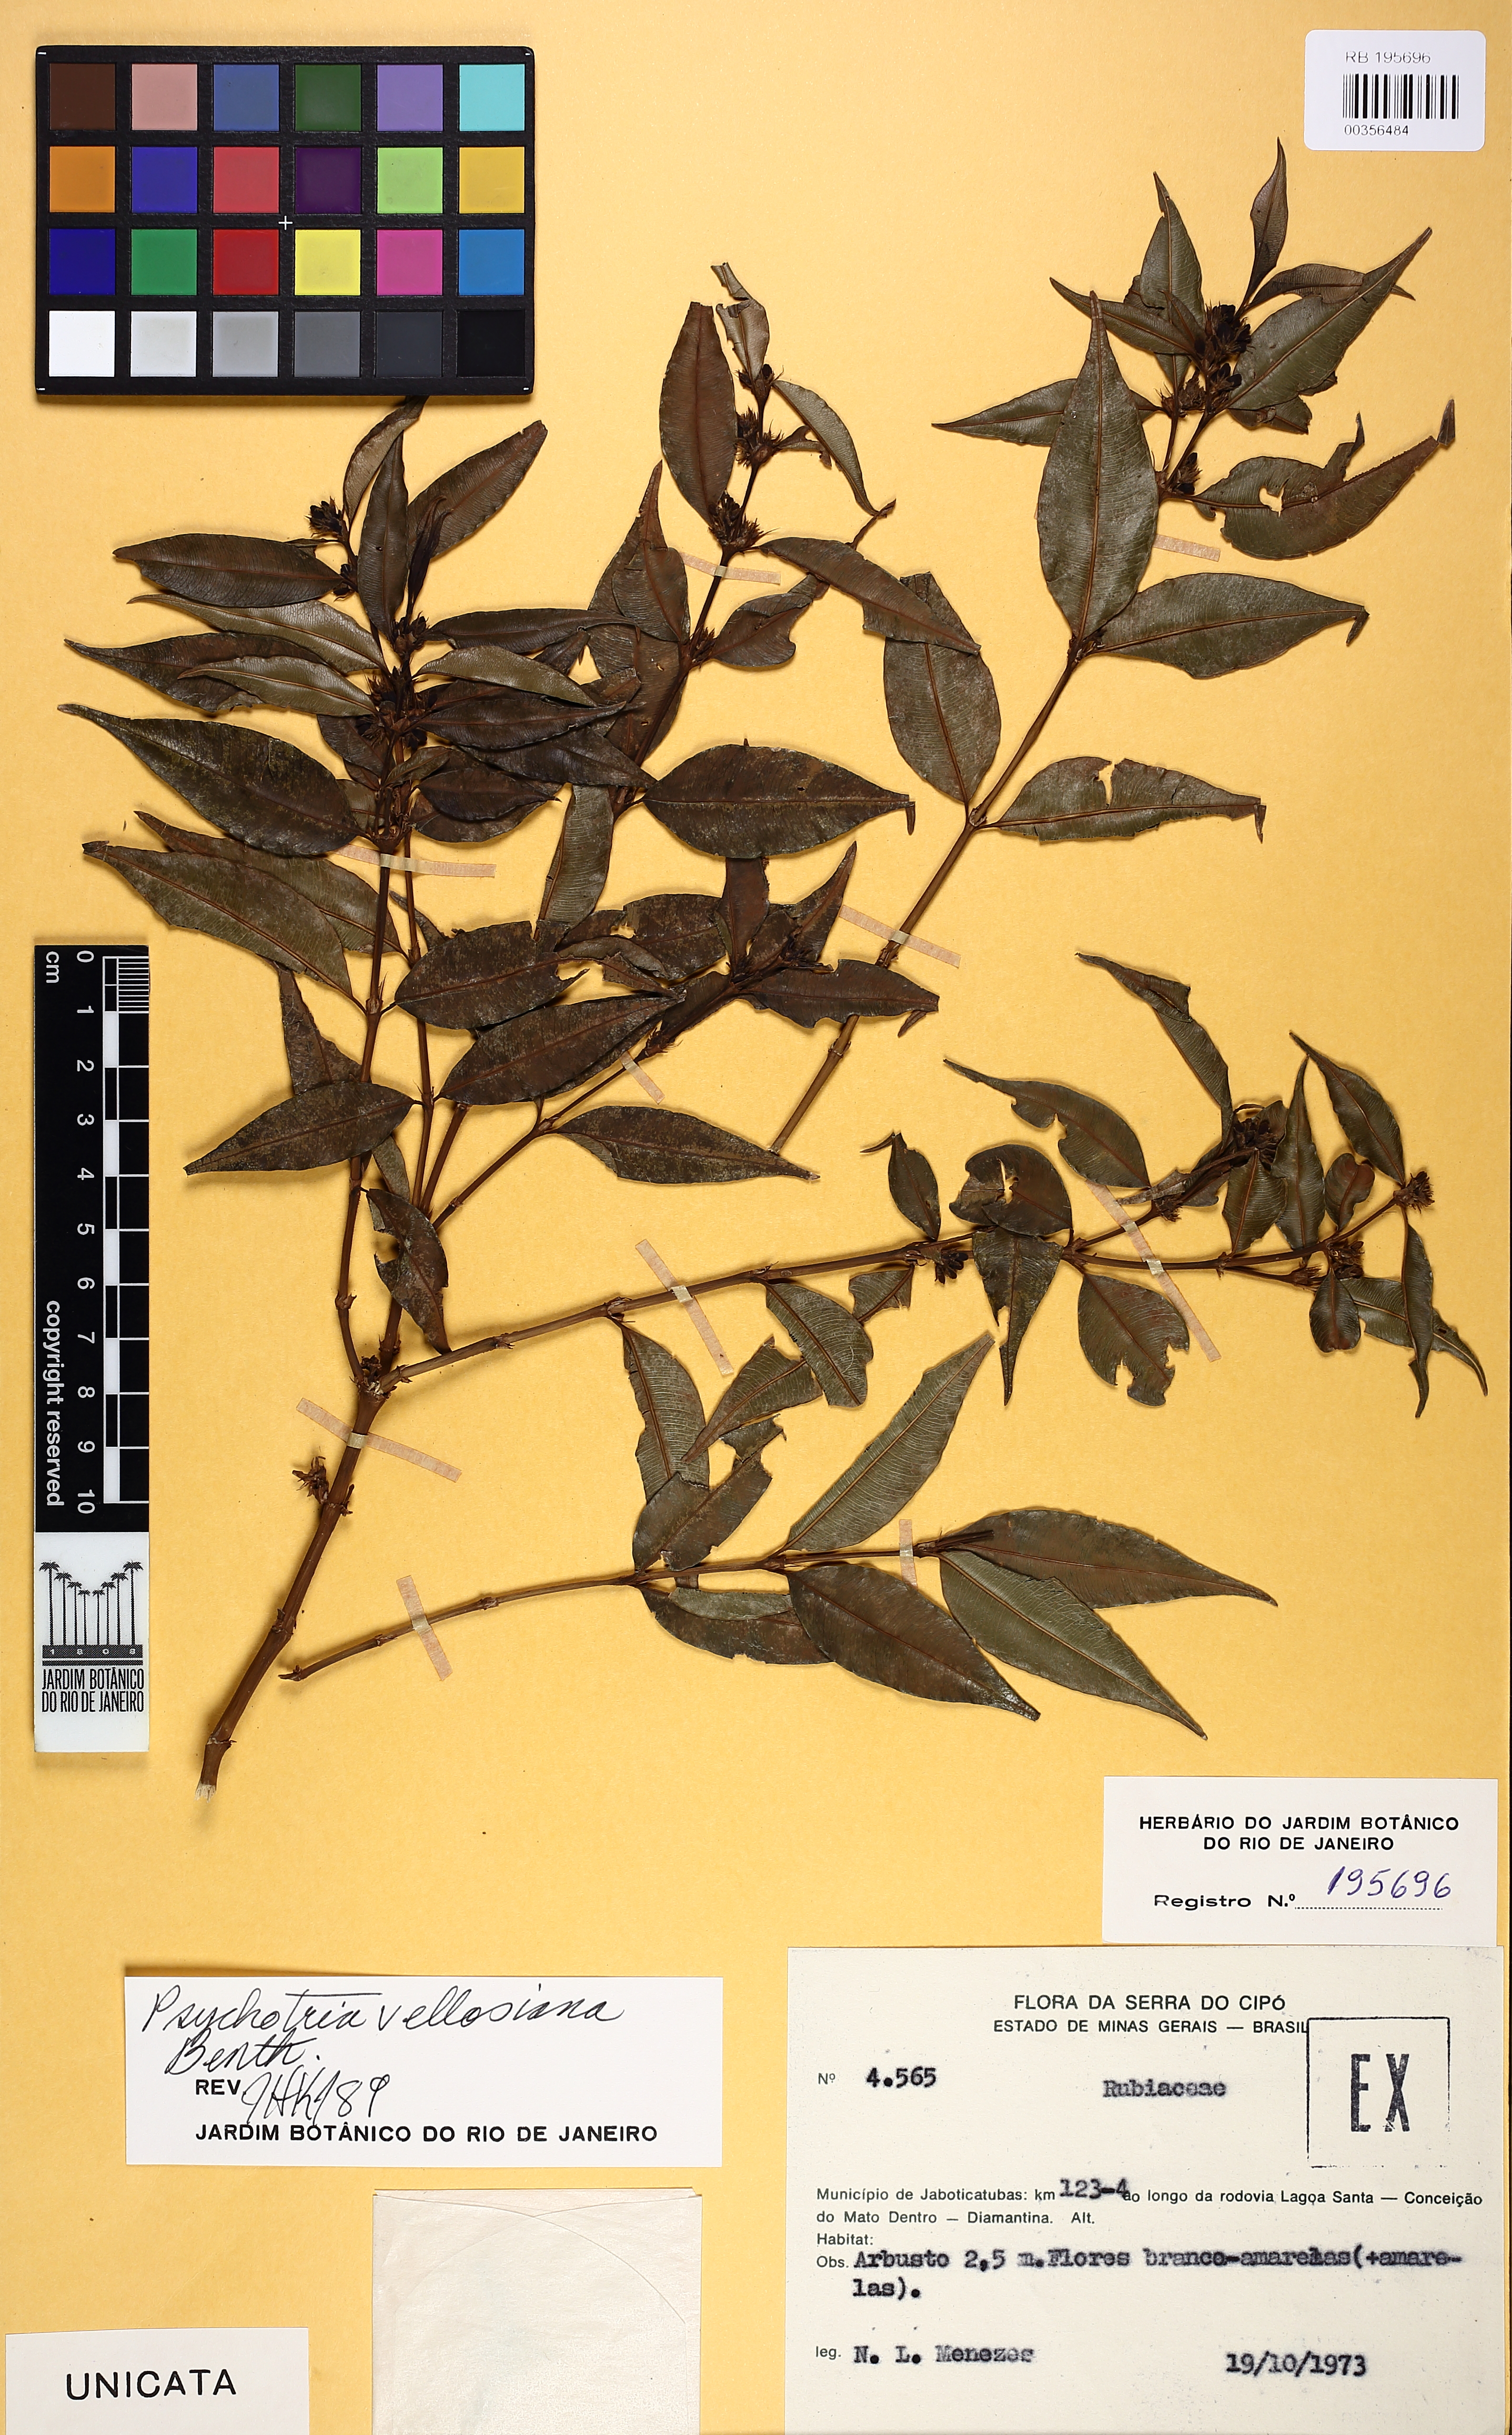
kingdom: Plantae
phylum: Tracheophyta
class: Magnoliopsida
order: Gentianales
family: Rubiaceae
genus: Rudgea
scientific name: Rudgea sessilis
